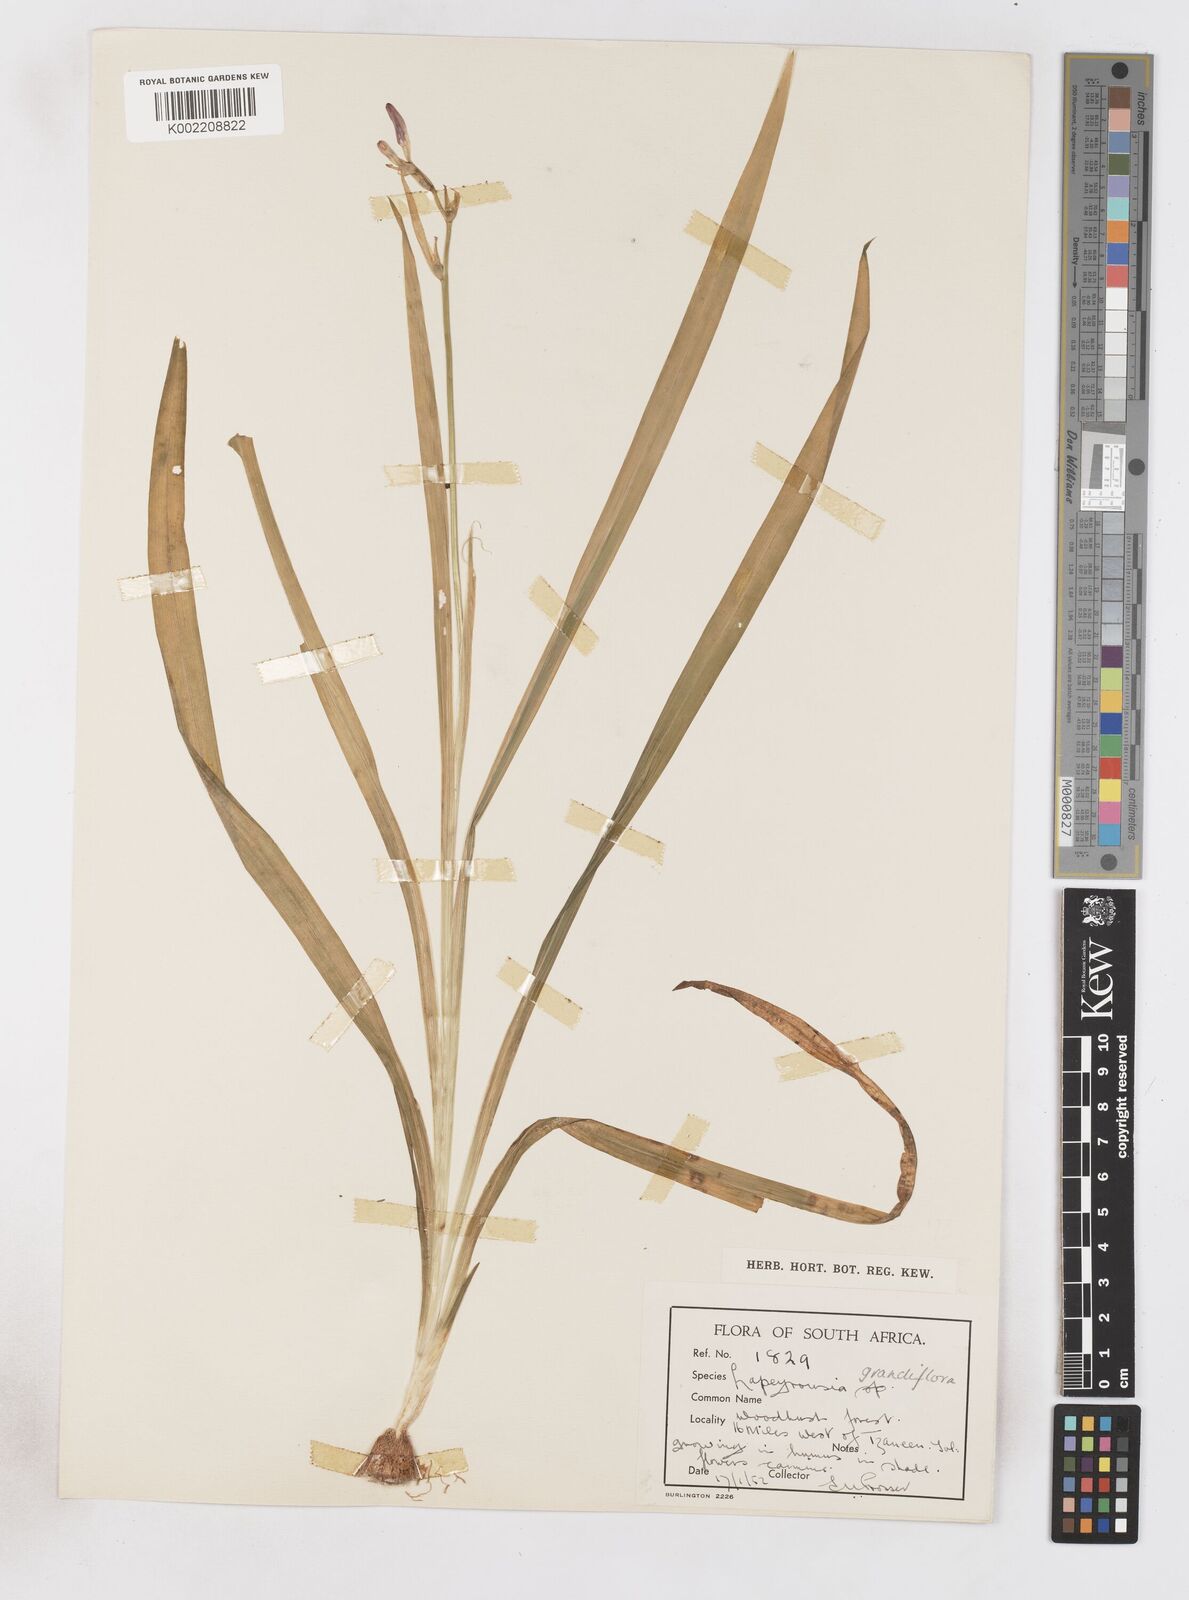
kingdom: Plantae
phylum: Tracheophyta
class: Liliopsida
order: Asparagales
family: Iridaceae
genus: Freesia
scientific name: Freesia grandiflora
